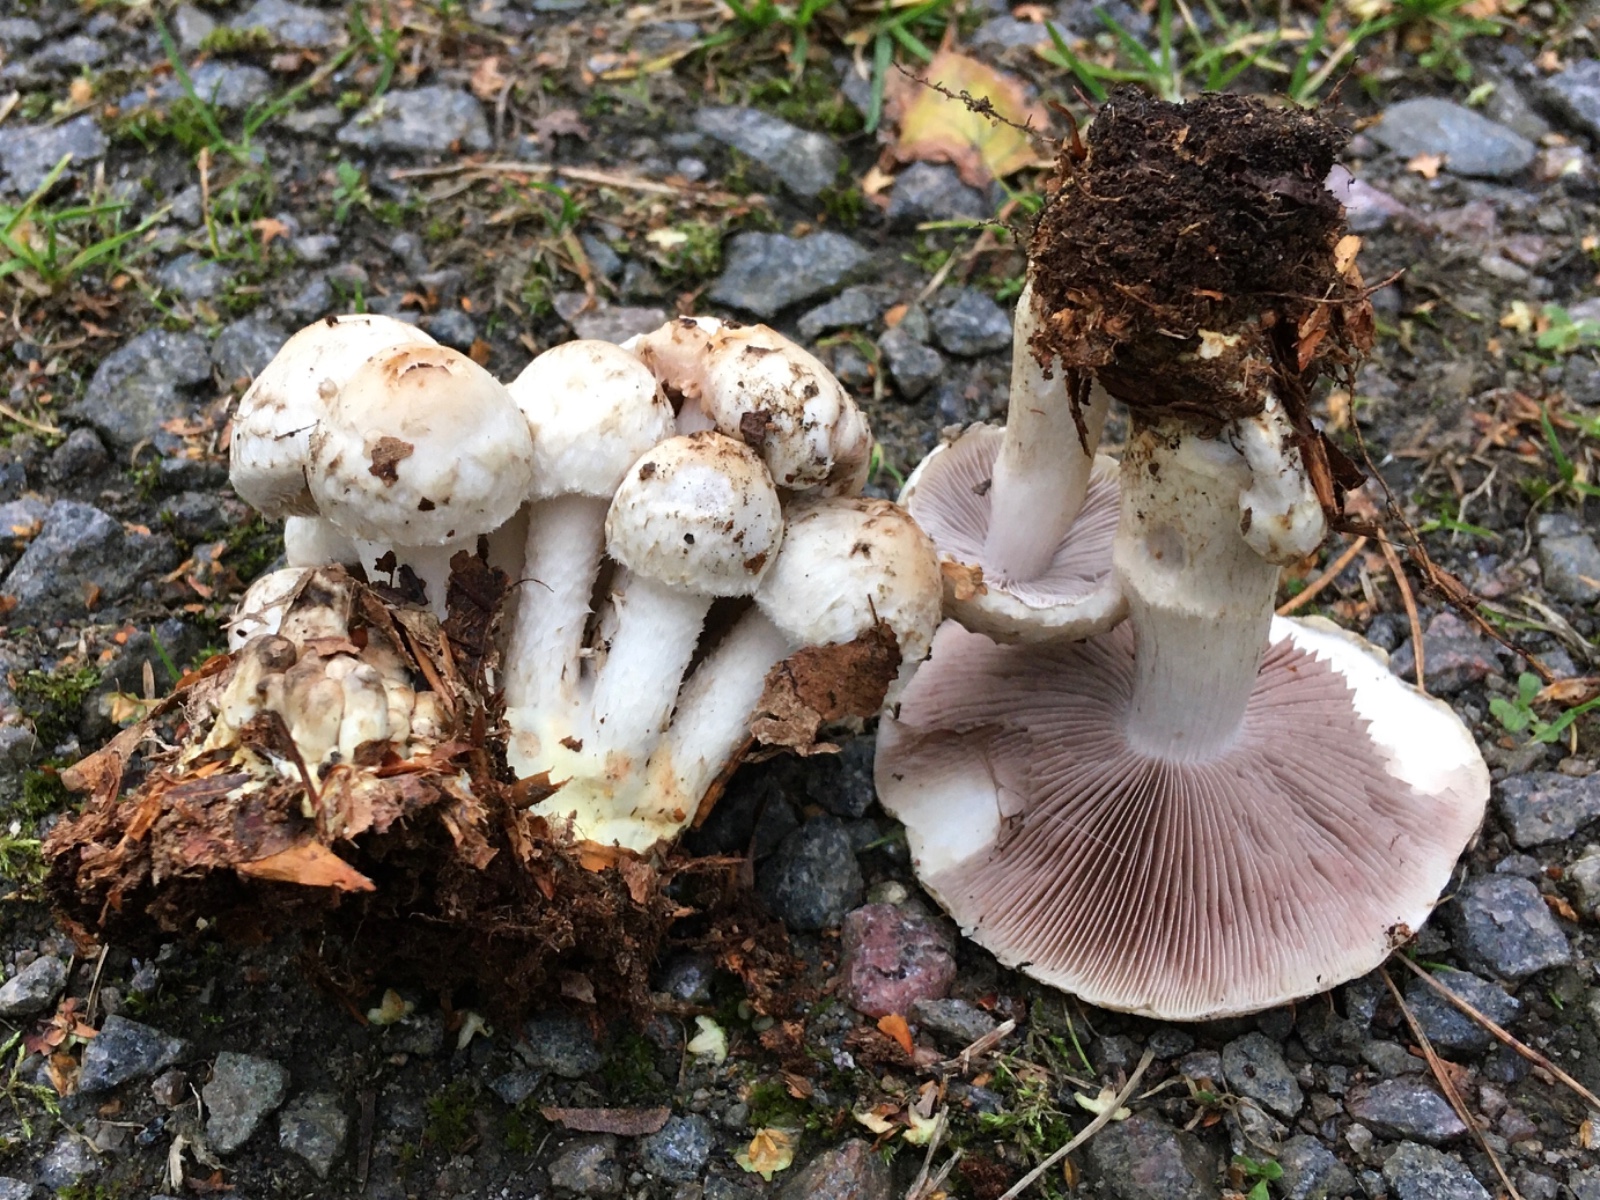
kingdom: Fungi
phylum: Basidiomycota
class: Agaricomycetes
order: Agaricales
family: Psathyrellaceae
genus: Psathyrella
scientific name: Psathyrella cotonea
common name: skællet mørkhat
